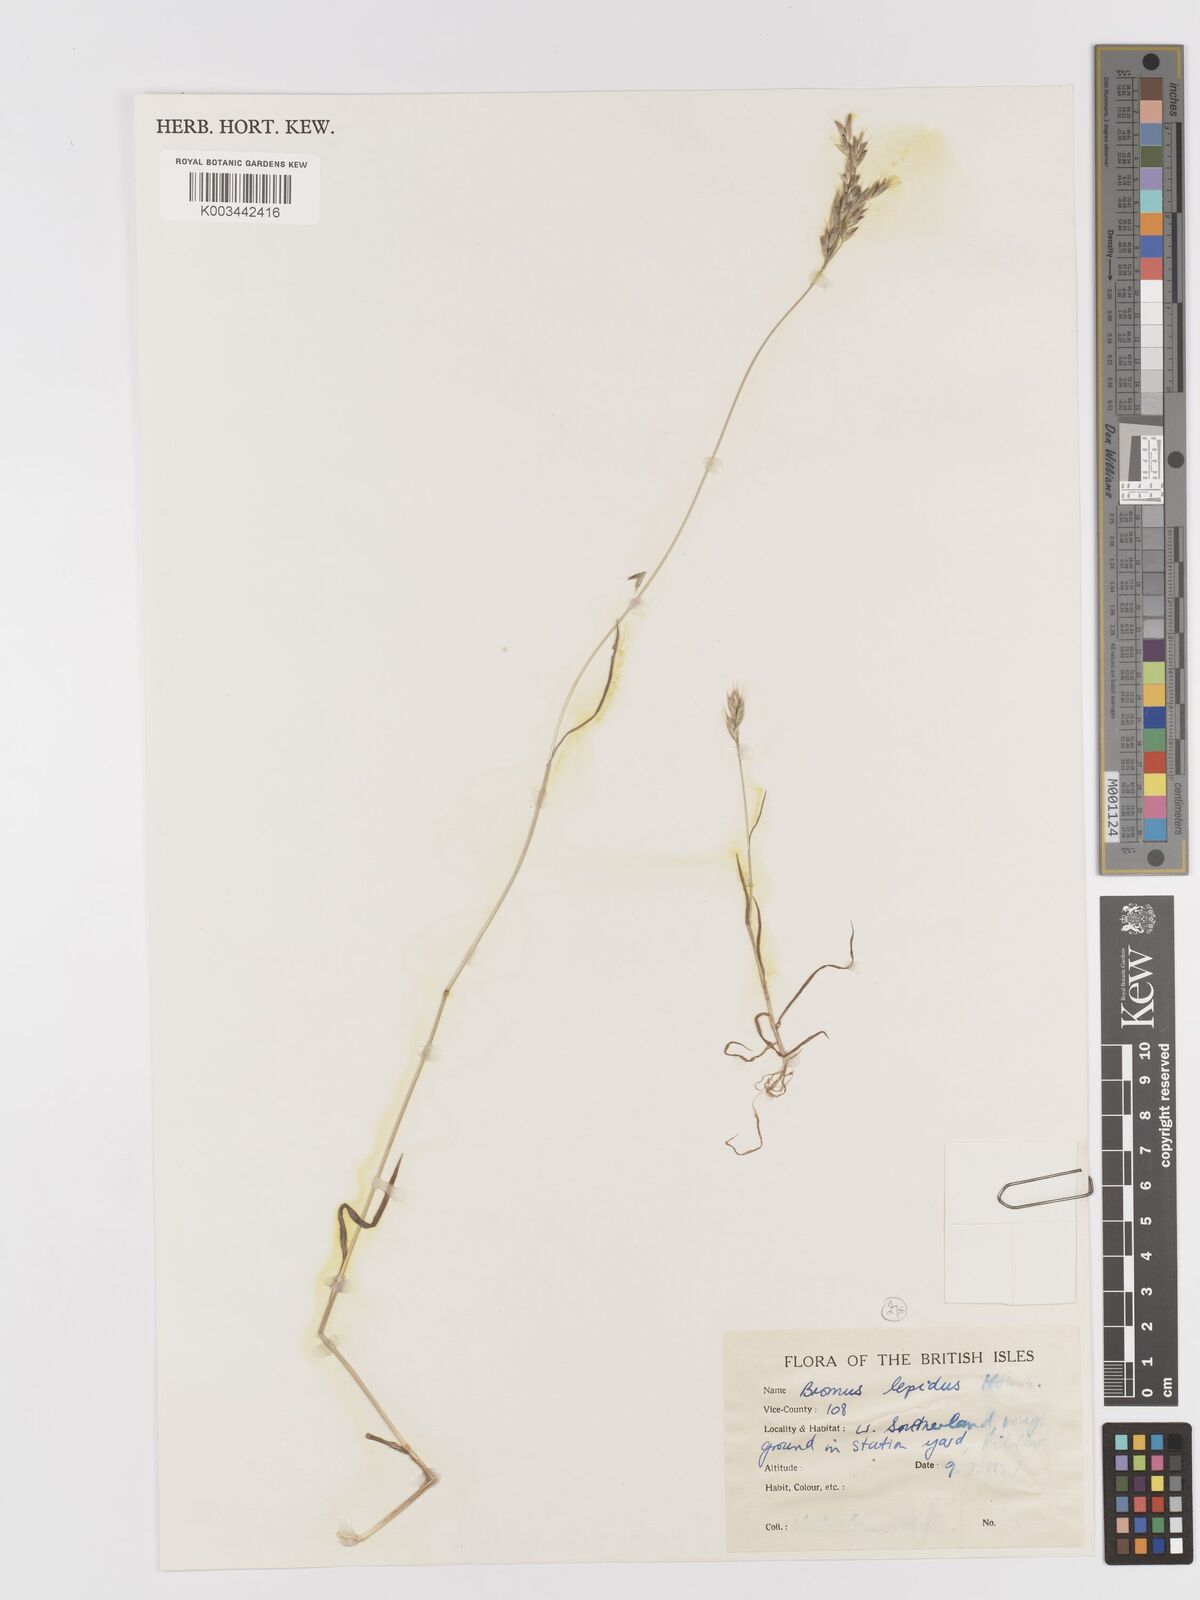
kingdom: Plantae
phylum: Tracheophyta
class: Liliopsida
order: Poales
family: Poaceae
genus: Bromus
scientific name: Bromus lepidus
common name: Slender soft-brome
